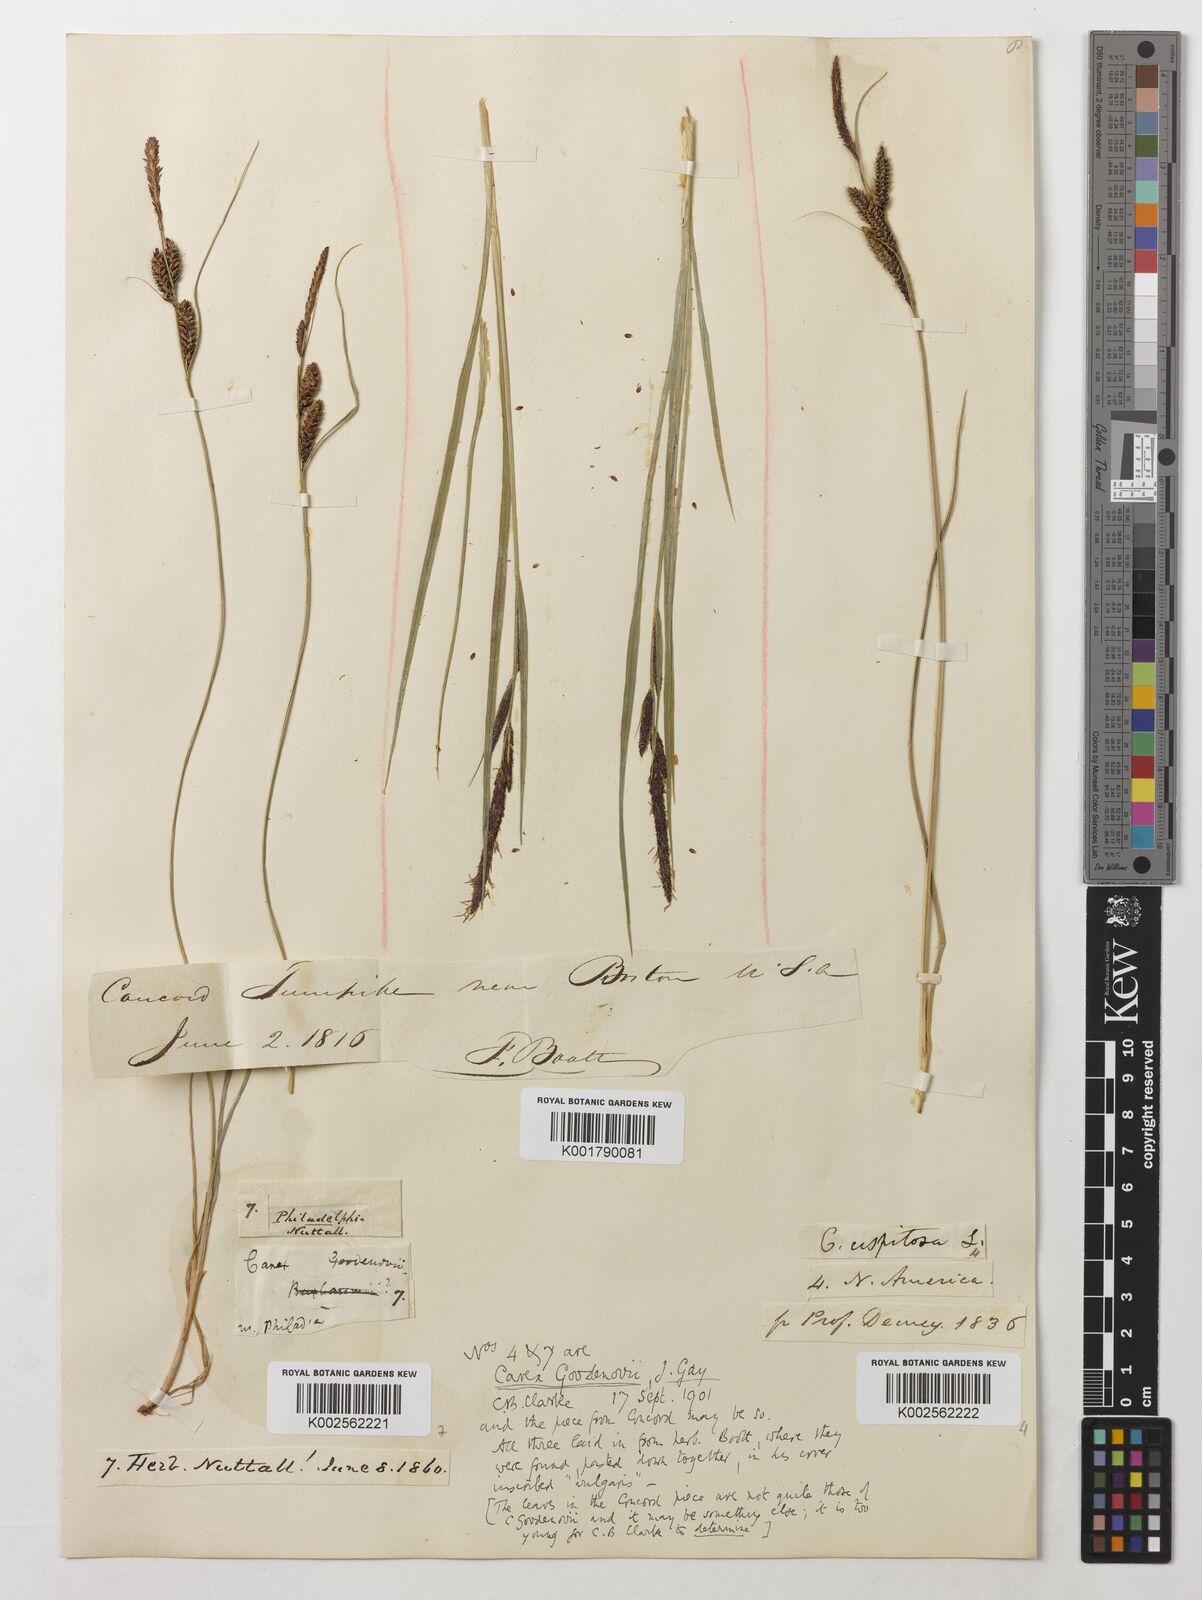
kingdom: Plantae
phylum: Tracheophyta
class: Liliopsida
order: Poales
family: Cyperaceae
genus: Carex
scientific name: Carex nigra
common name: Common sedge
